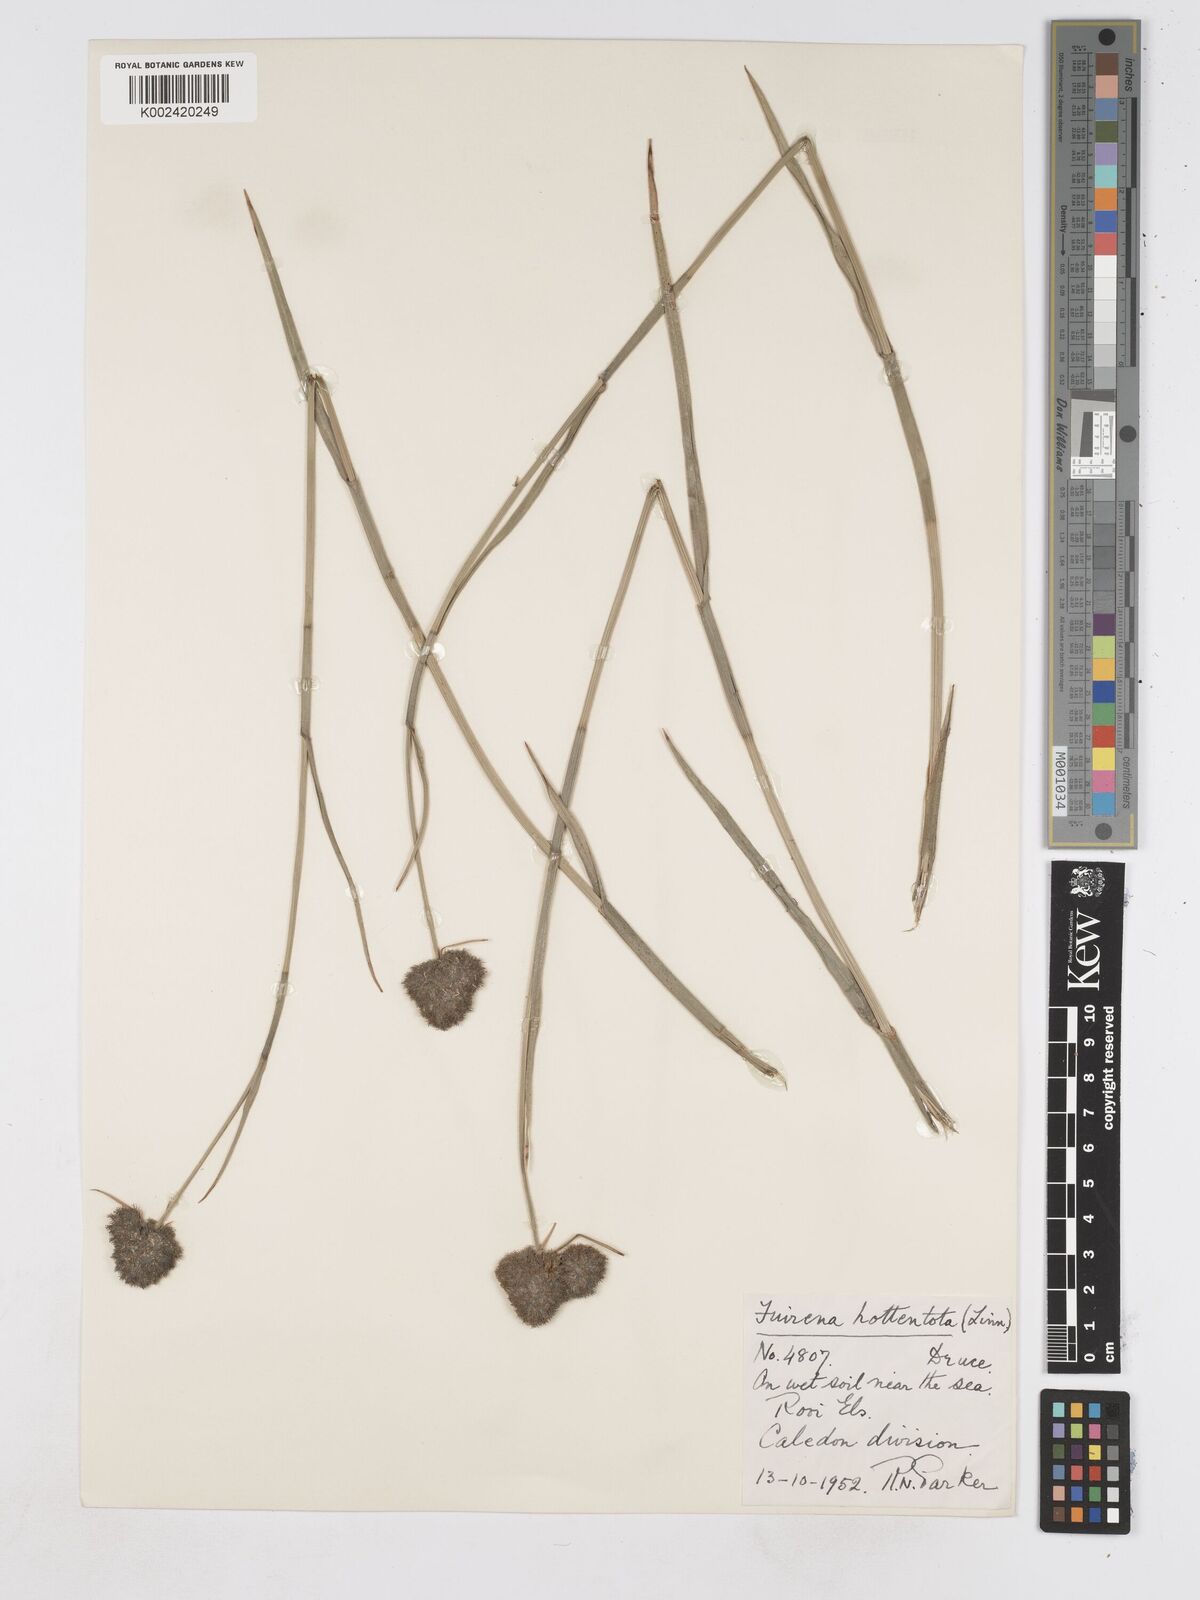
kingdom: Plantae
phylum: Tracheophyta
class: Liliopsida
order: Poales
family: Cyperaceae
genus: Fuirena
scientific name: Fuirena hirsuta
